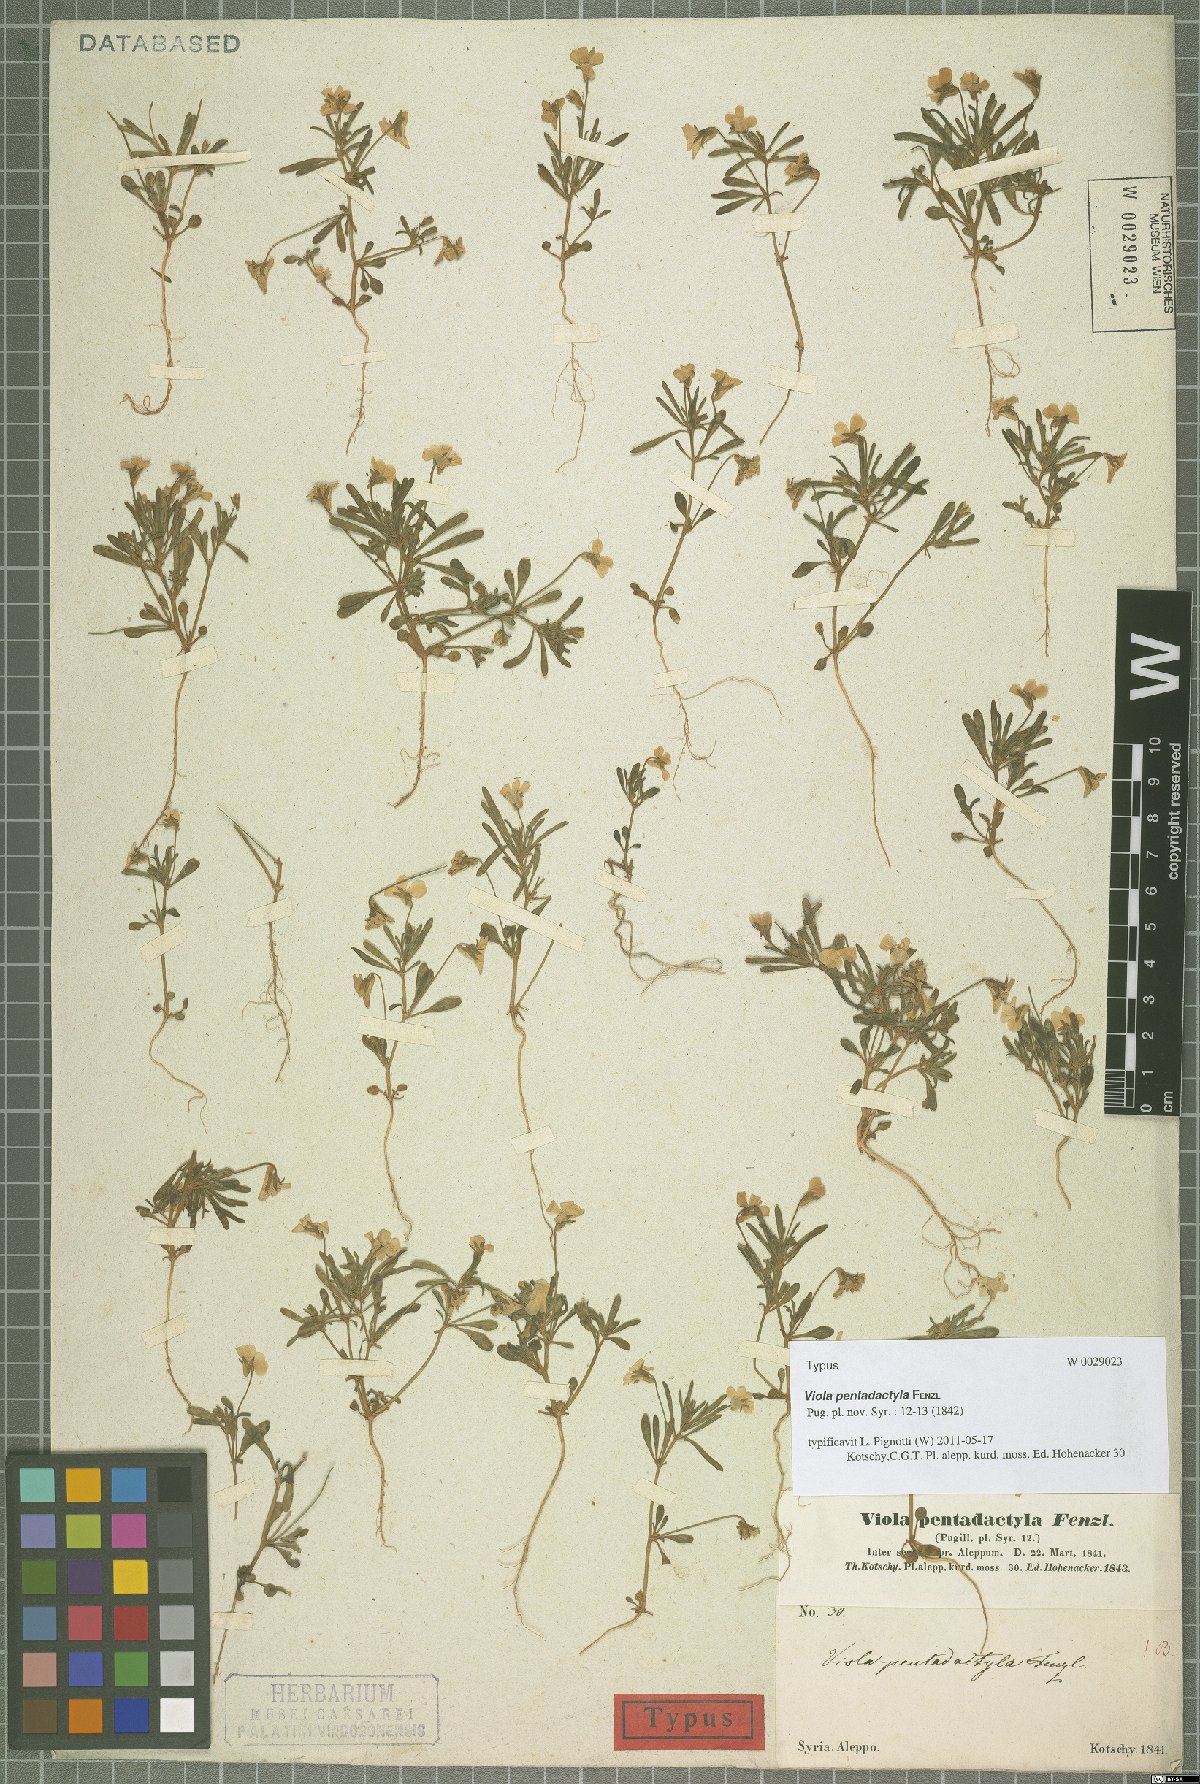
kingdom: Plantae
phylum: Tracheophyta
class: Magnoliopsida
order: Malpighiales
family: Violaceae
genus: Viola
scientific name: Viola pentadactyla
